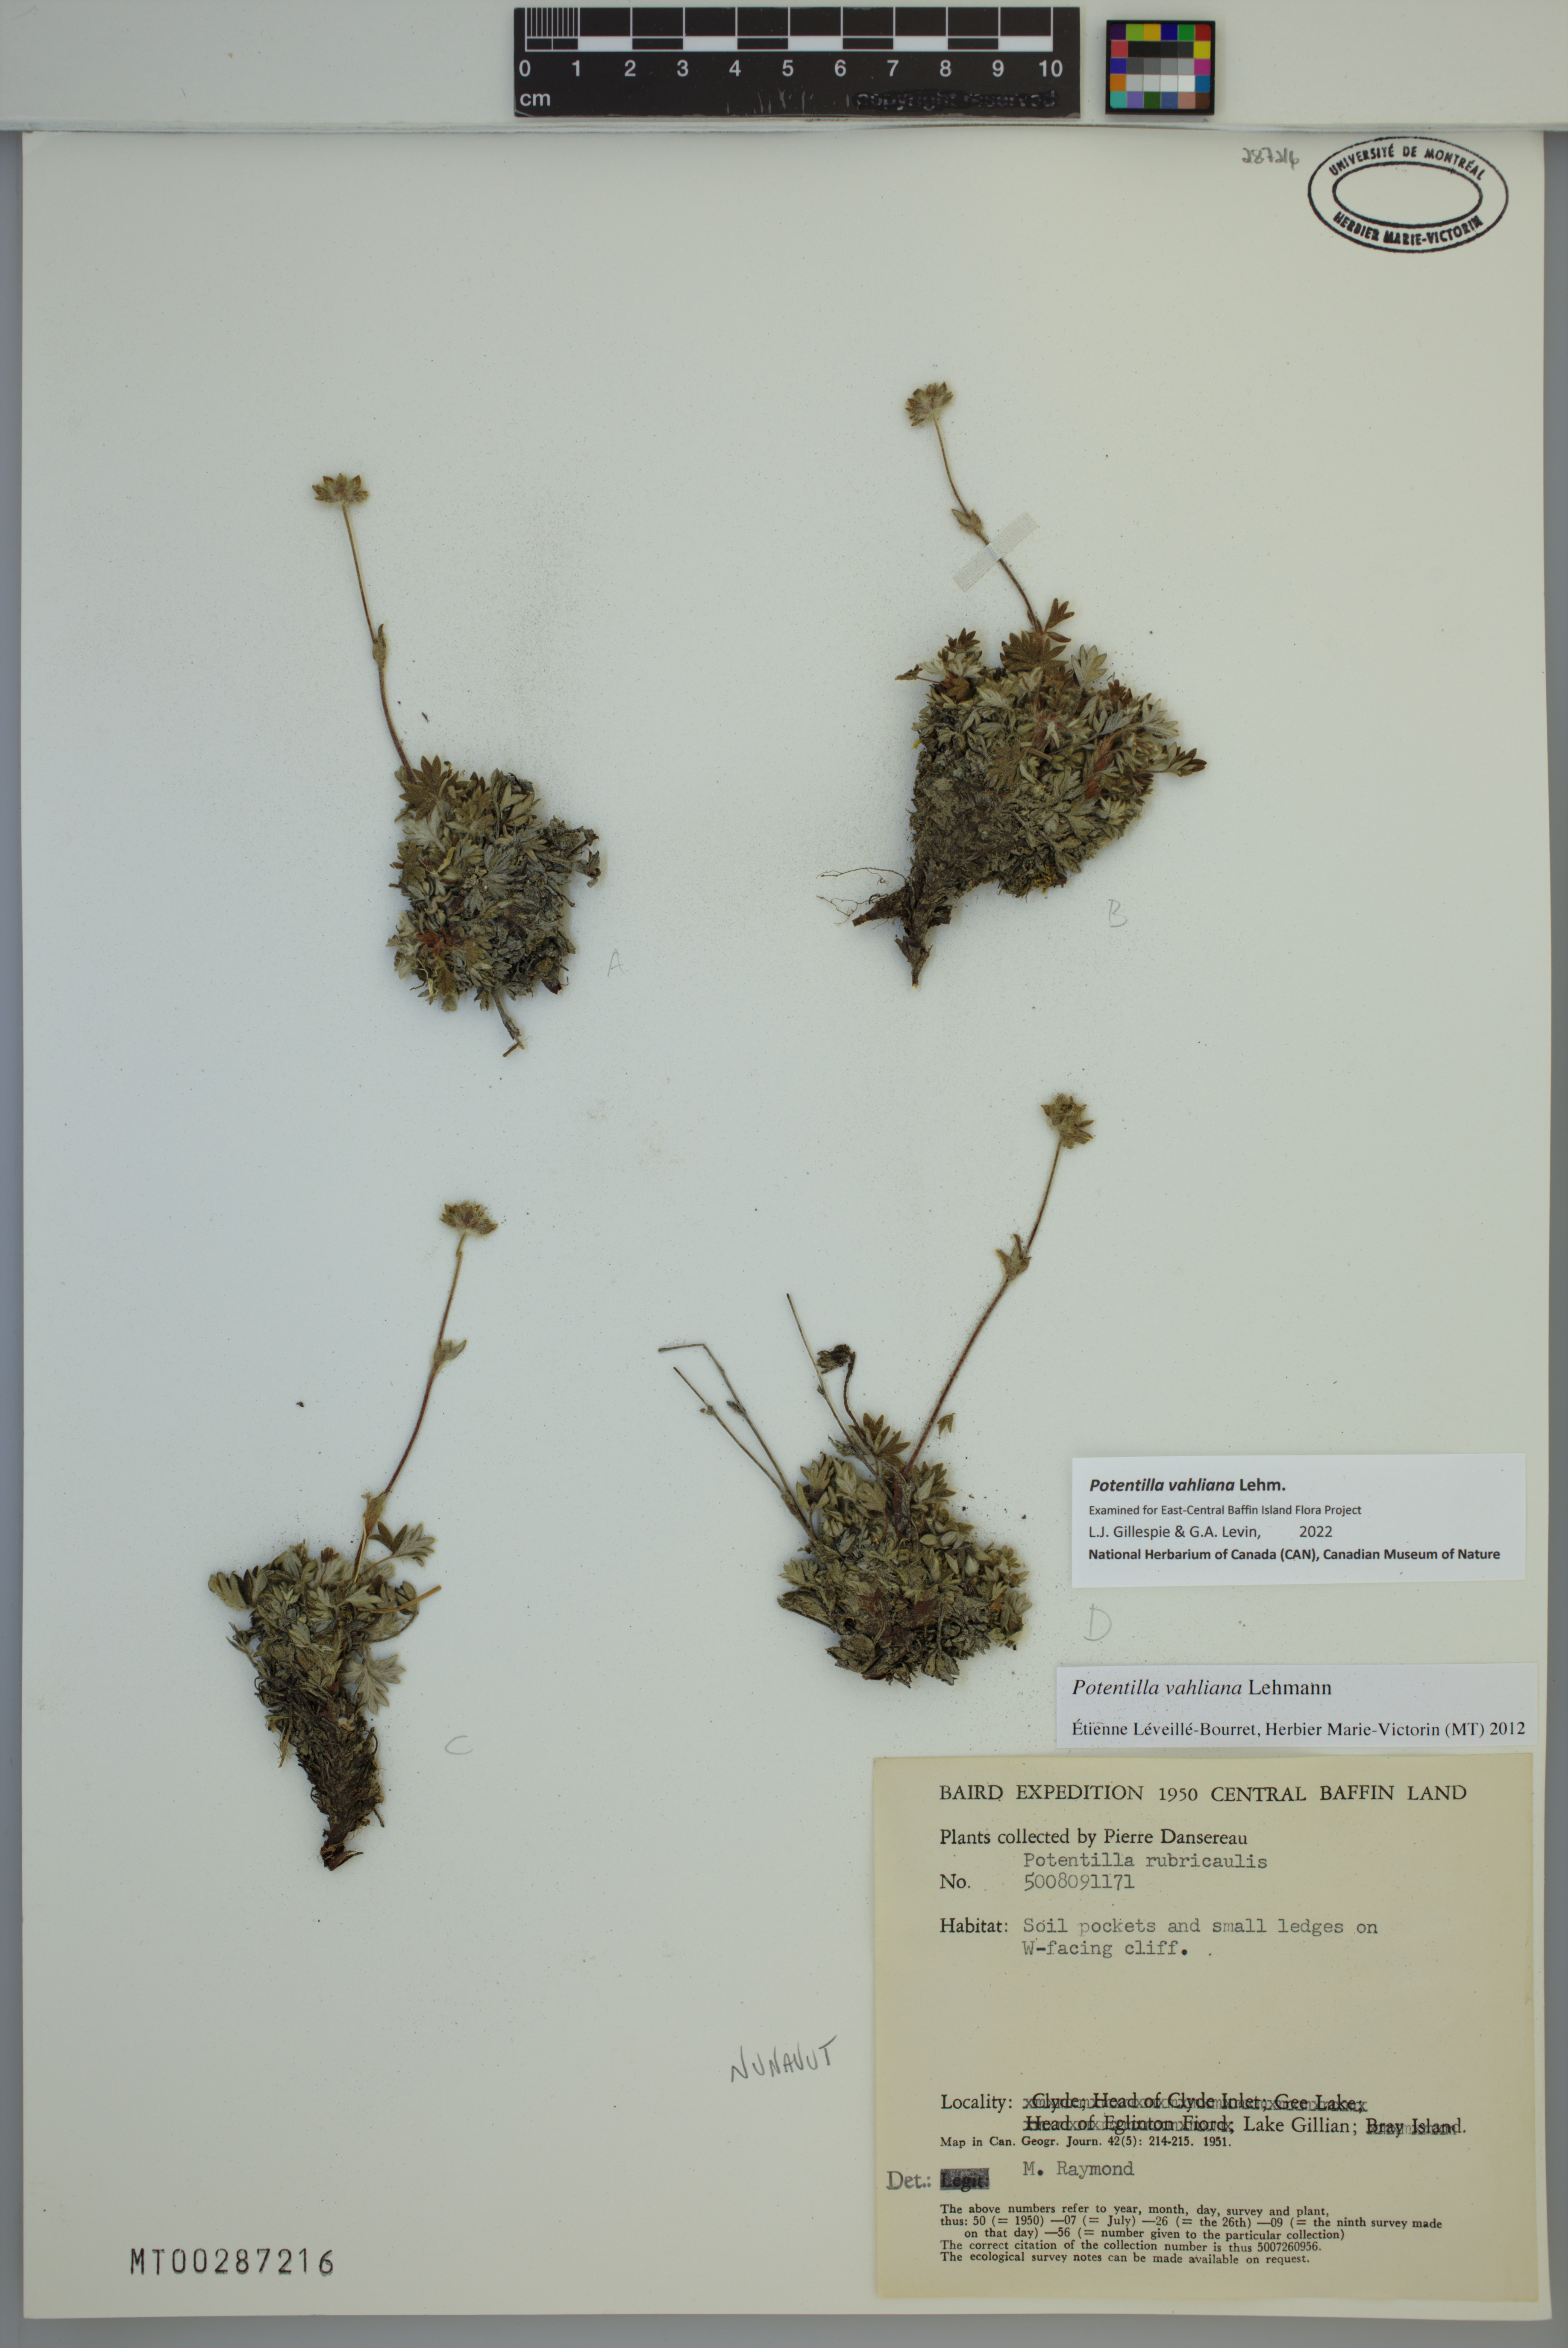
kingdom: Plantae
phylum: Tracheophyta
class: Magnoliopsida
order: Rosales
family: Rosaceae
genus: Potentilla
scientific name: Potentilla vahliana
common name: Vahl's cinquefoil
